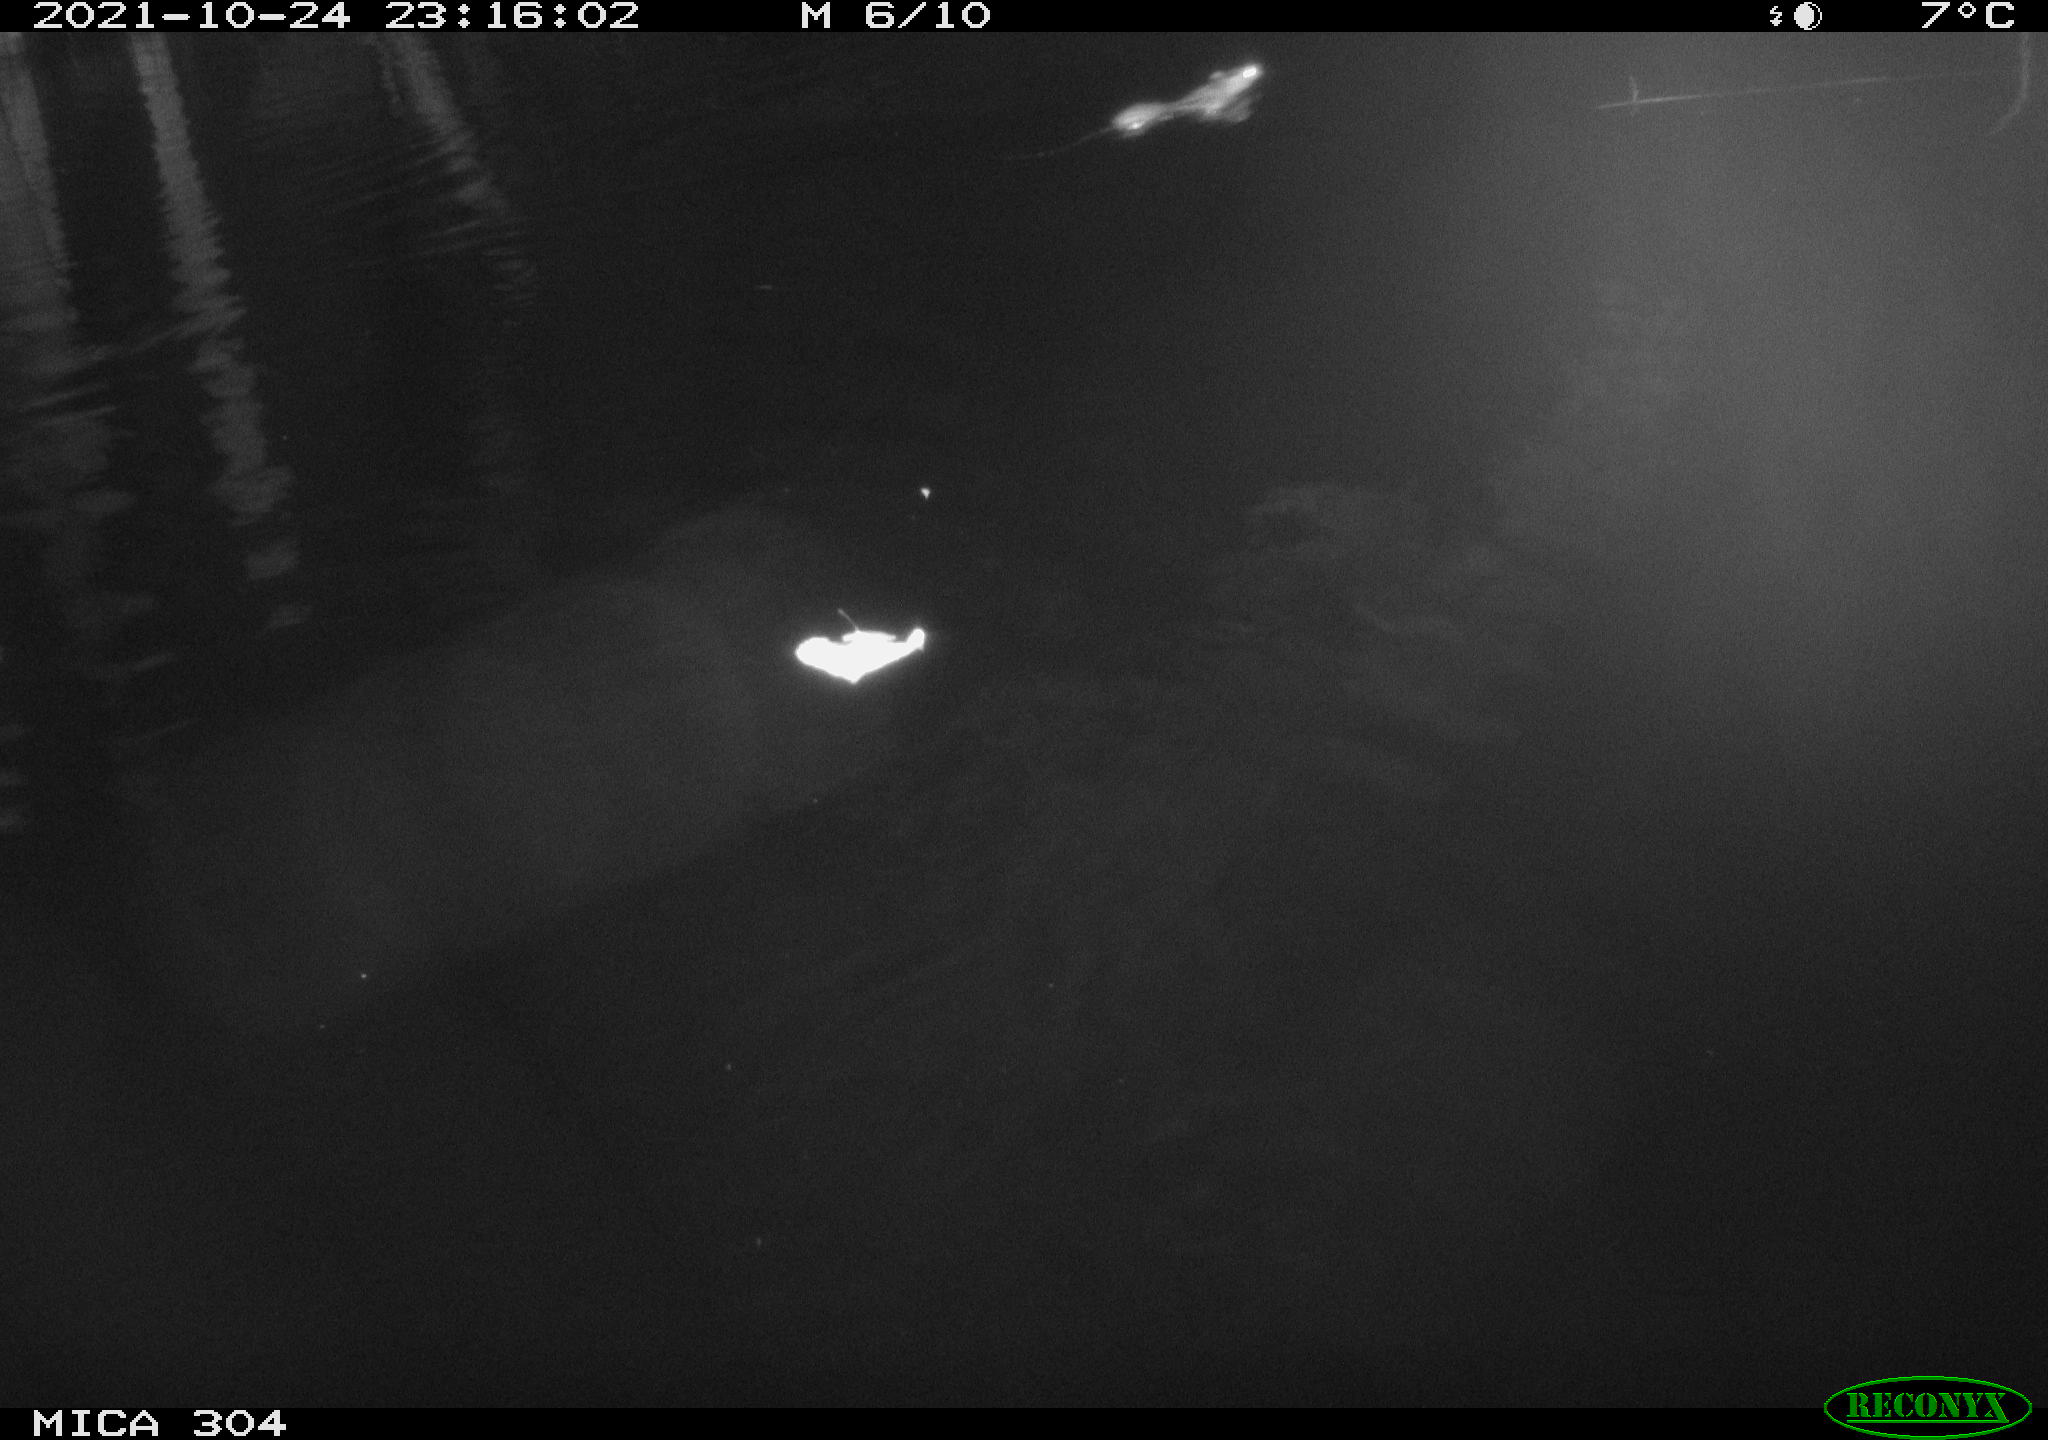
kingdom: Animalia
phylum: Chordata
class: Mammalia
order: Rodentia
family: Muridae
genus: Rattus
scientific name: Rattus norvegicus
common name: Brown rat
